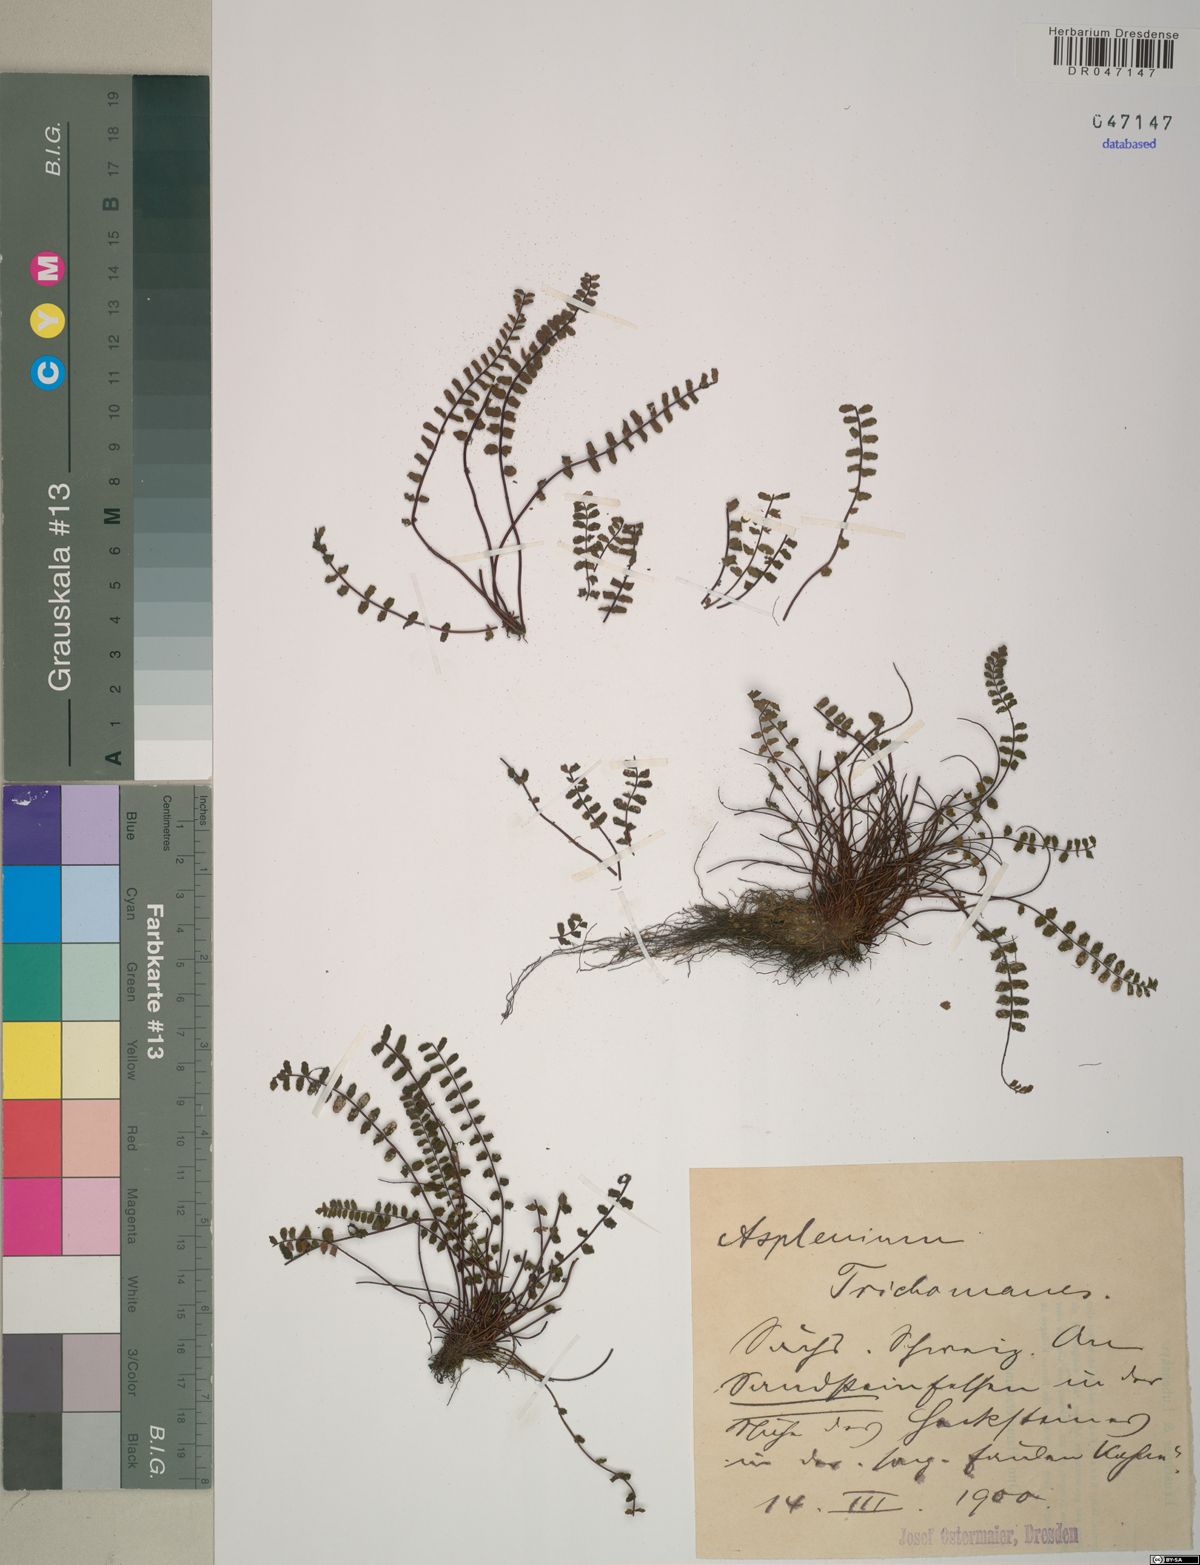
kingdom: Plantae
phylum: Tracheophyta
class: Polypodiopsida
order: Polypodiales
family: Aspleniaceae
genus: Asplenium
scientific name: Asplenium trichomanes
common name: Maidenhair spleenwort
